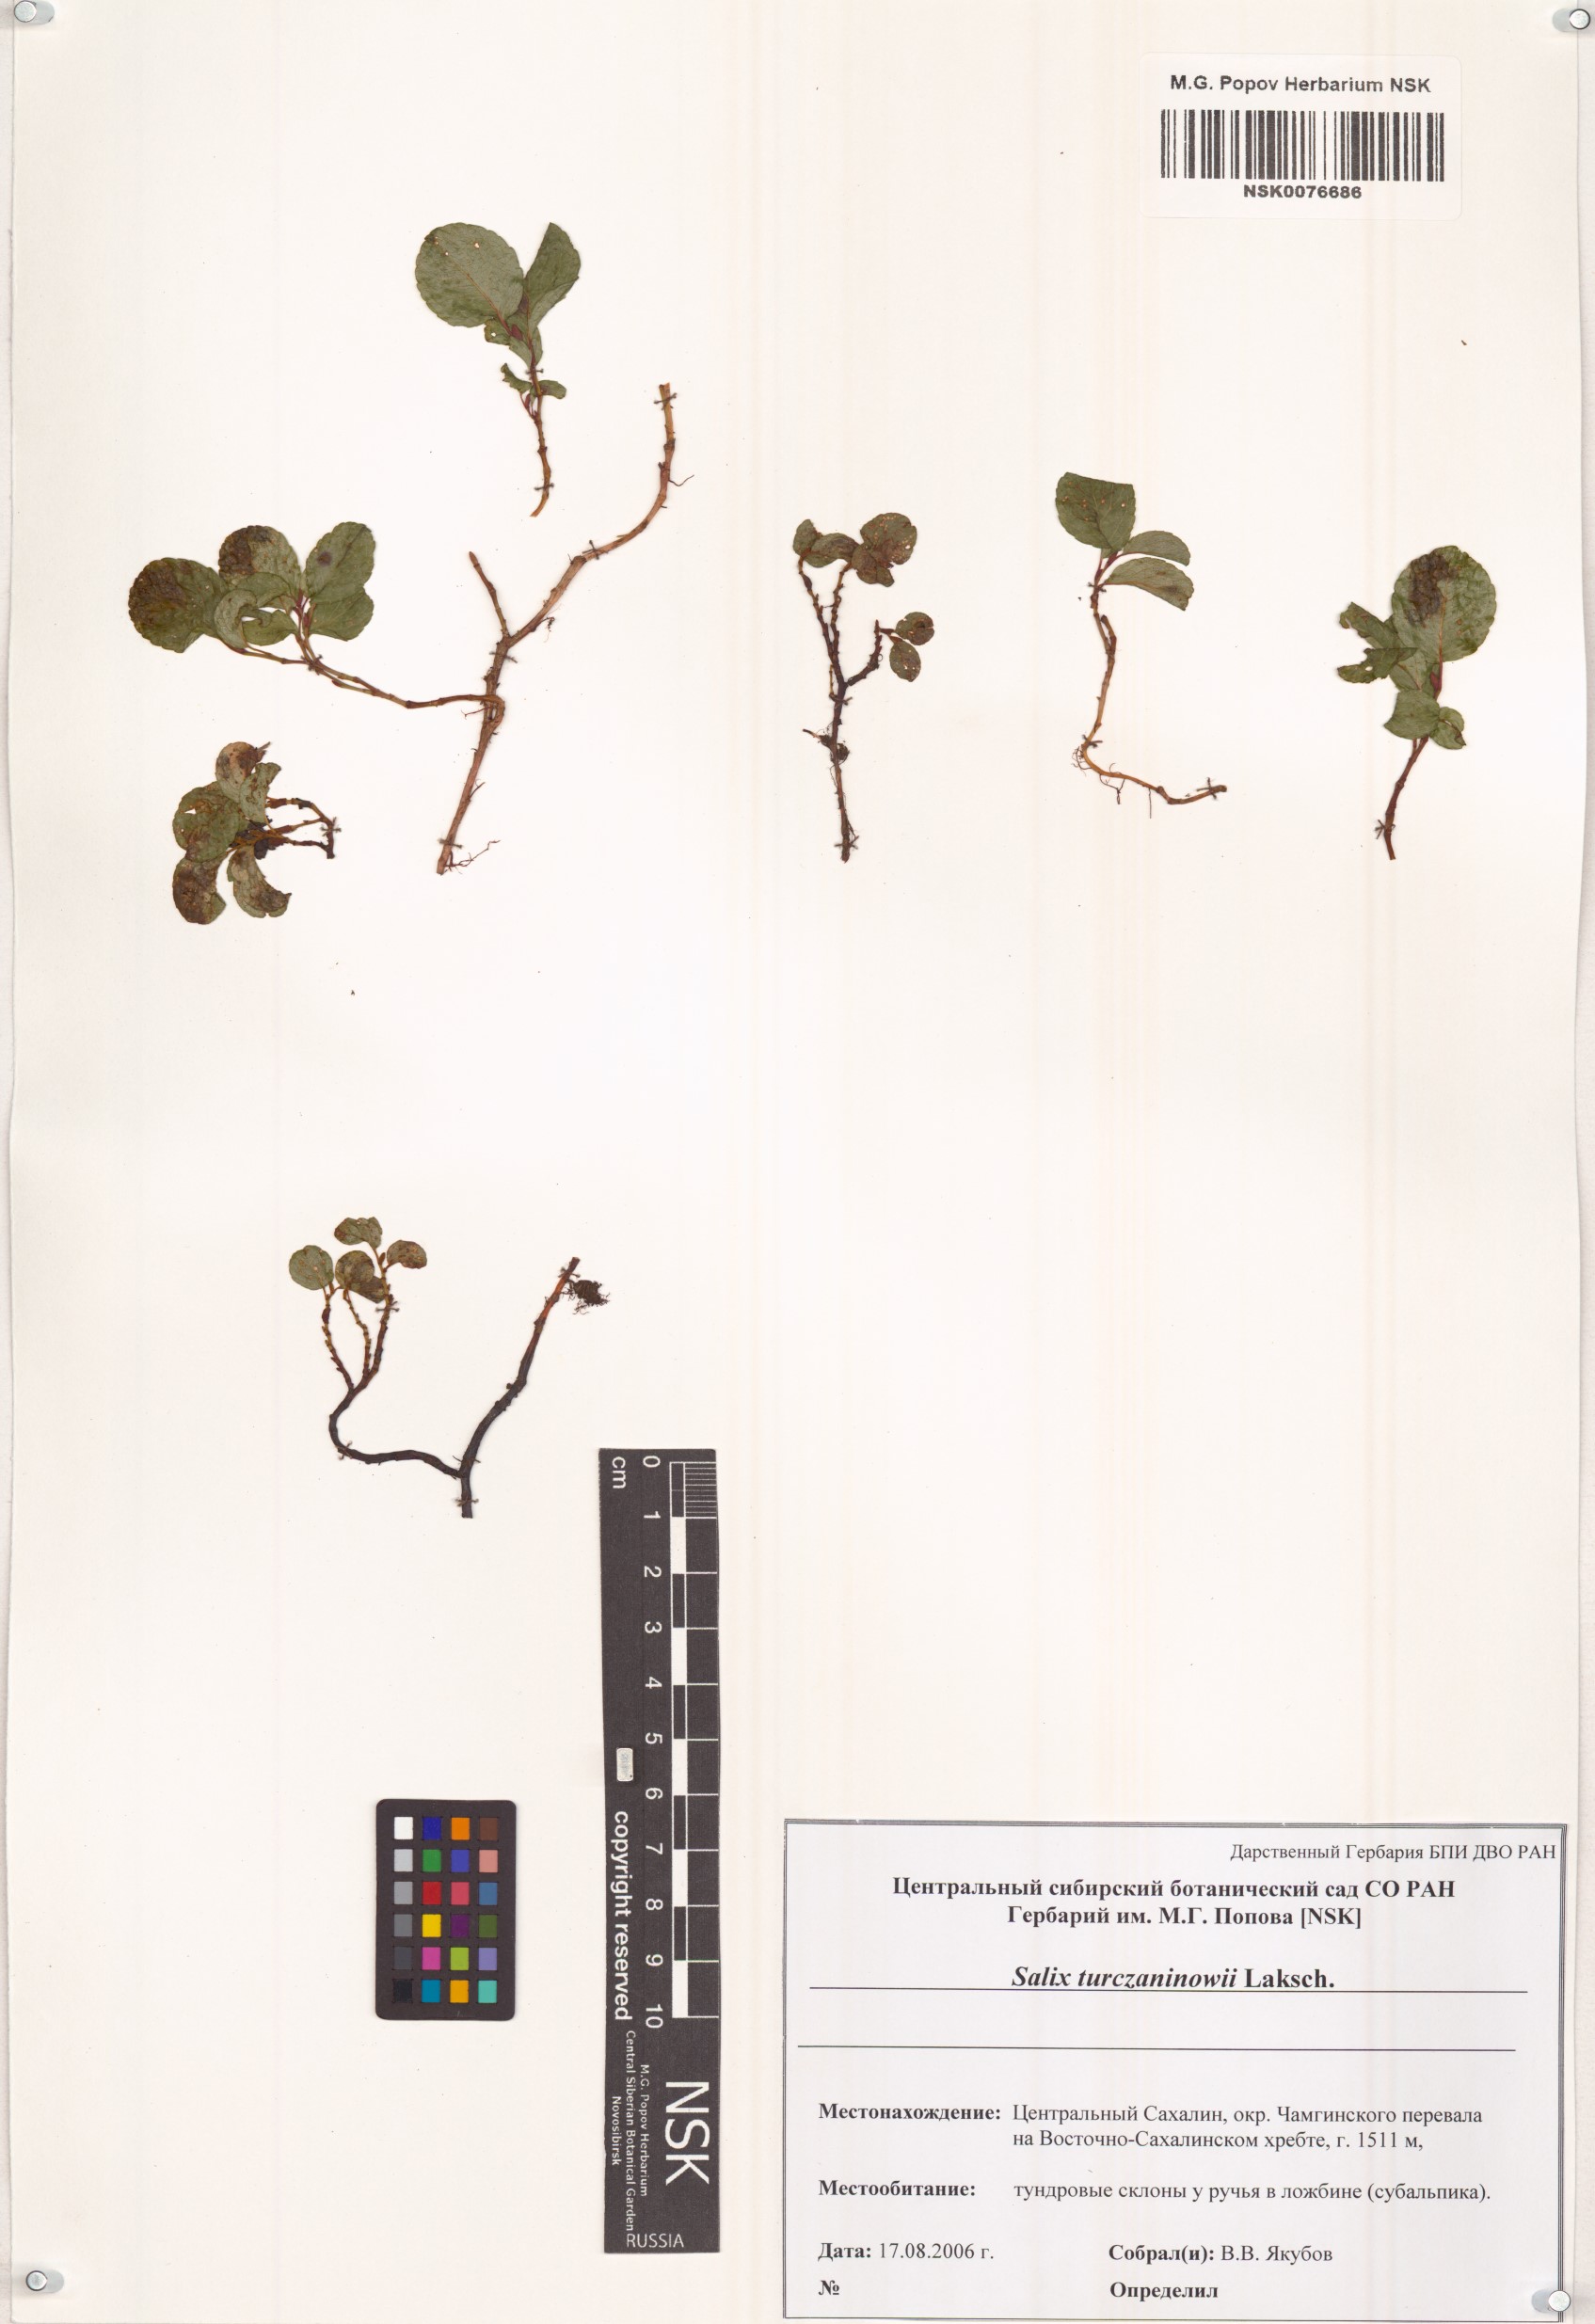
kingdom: Plantae
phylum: Tracheophyta
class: Magnoliopsida
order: Malpighiales
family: Salicaceae
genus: Salix
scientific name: Salix turczaninowii
